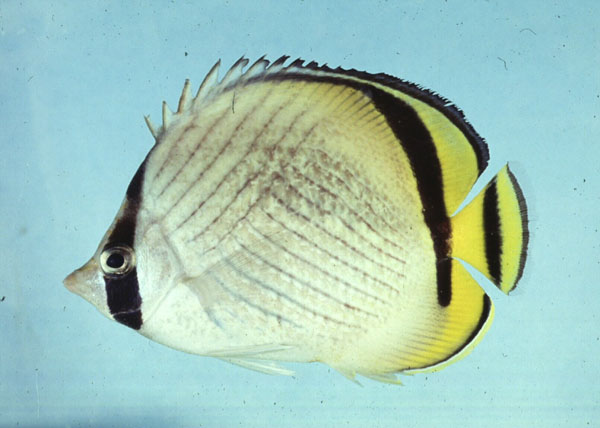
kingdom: Animalia
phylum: Chordata
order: Perciformes
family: Chaetodontidae
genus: Chaetodon
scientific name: Chaetodon vagabundus
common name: Vagabond butterflyfish
